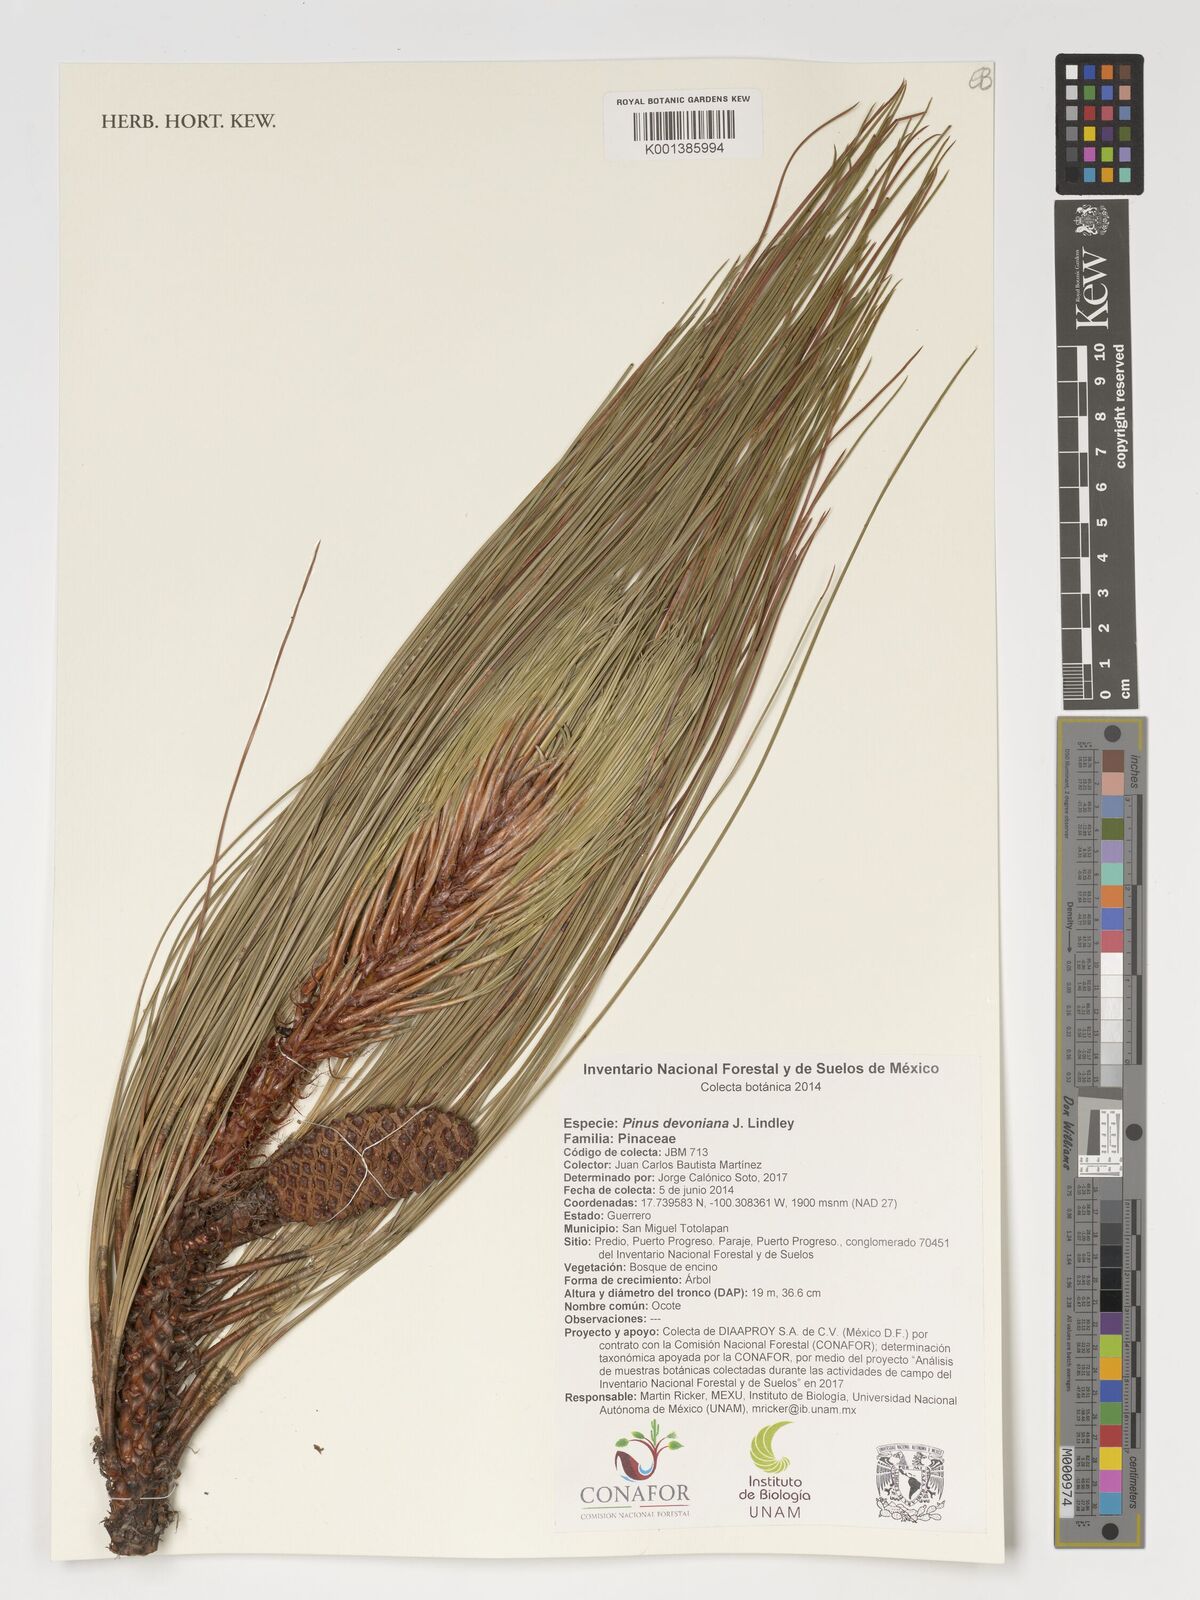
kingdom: Plantae
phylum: Tracheophyta
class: Pinopsida
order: Pinales
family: Pinaceae
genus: Pinus
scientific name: Pinus devoniana
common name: Michoacan pine
